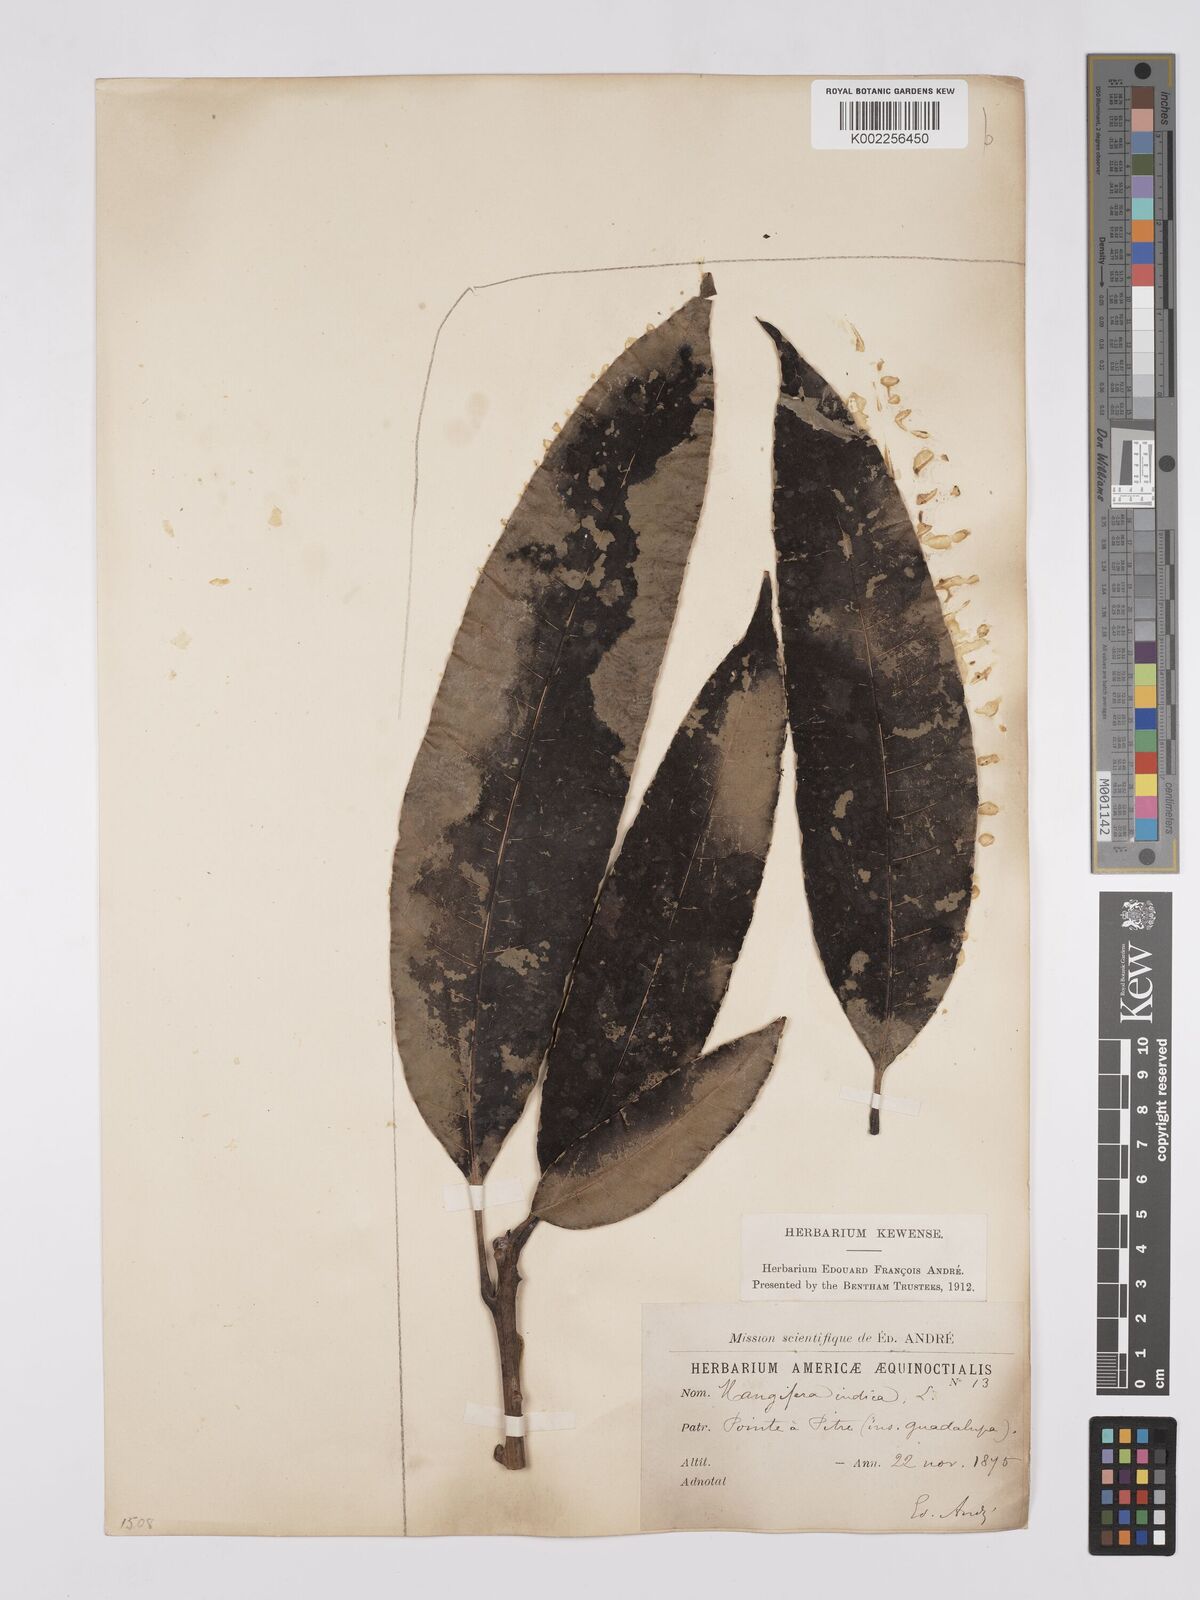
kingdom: Plantae
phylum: Tracheophyta
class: Magnoliopsida
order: Sapindales
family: Anacardiaceae
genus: Mangifera
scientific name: Mangifera indica
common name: Mango
